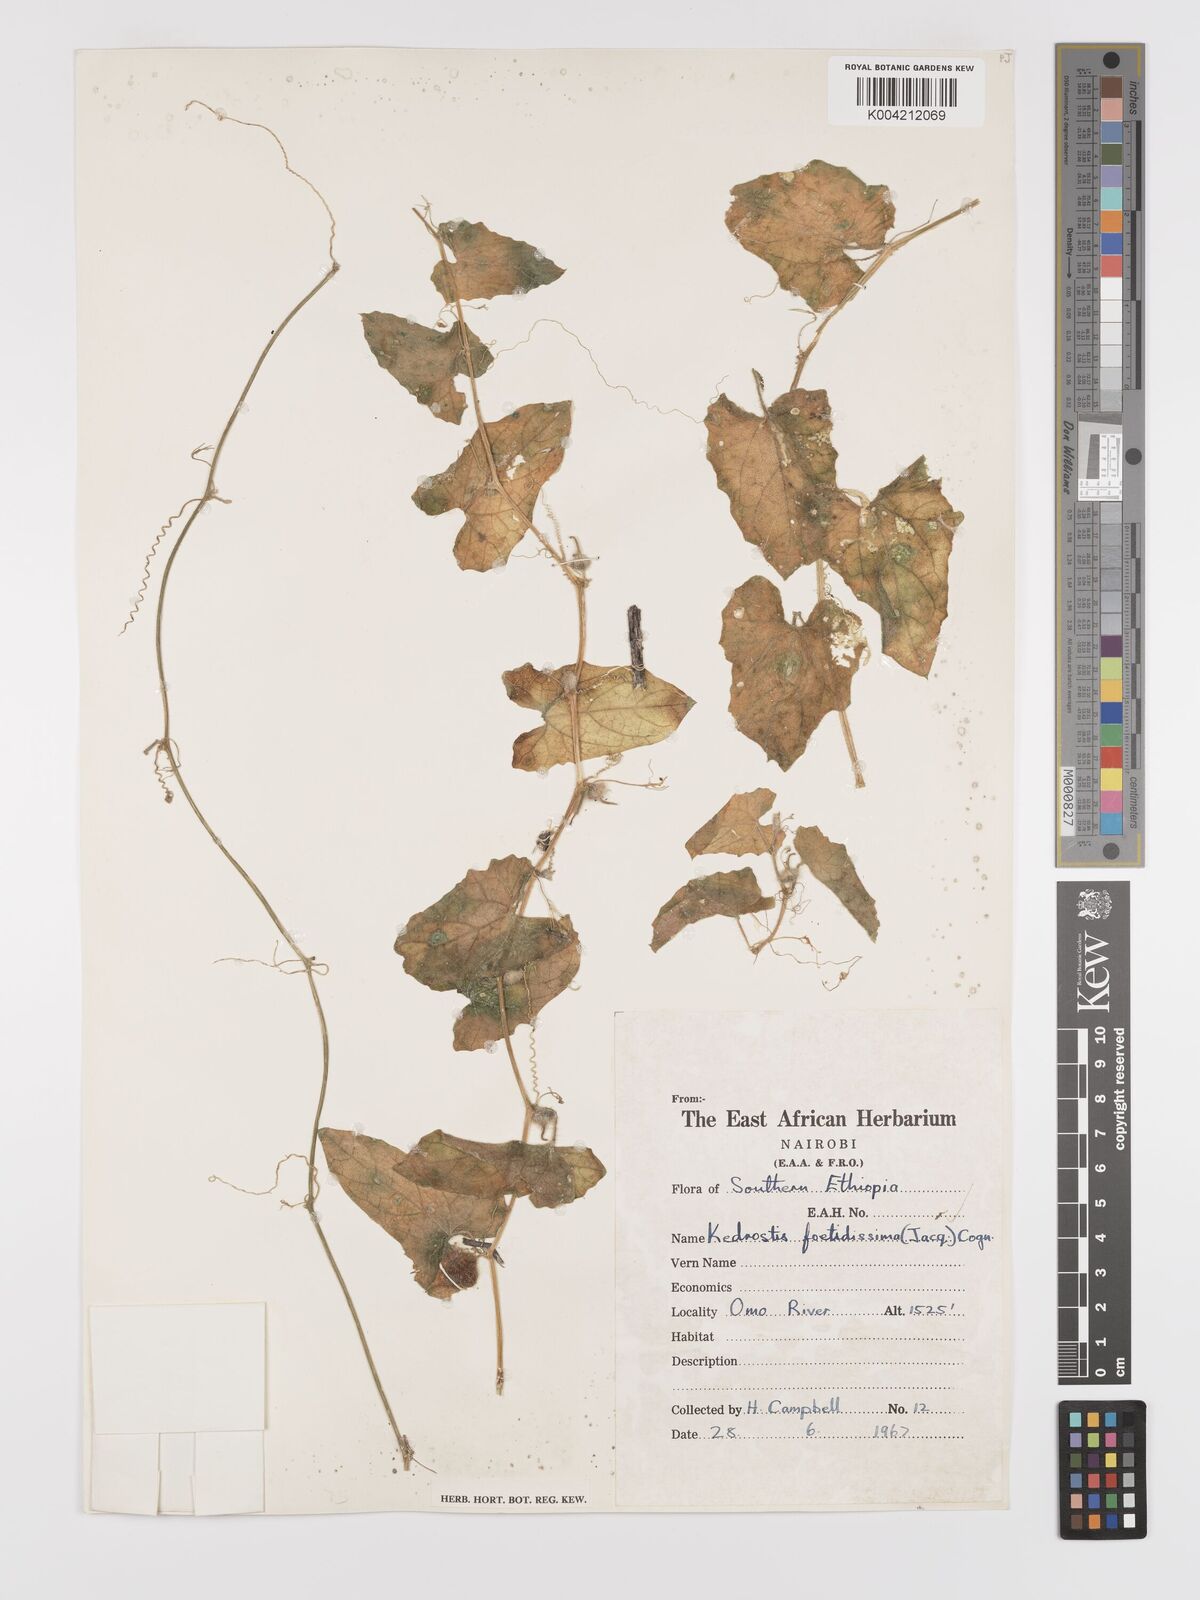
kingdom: Plantae
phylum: Tracheophyta
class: Magnoliopsida
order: Cucurbitales
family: Cucurbitaceae
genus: Kedrostis
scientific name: Kedrostis foetidissima
